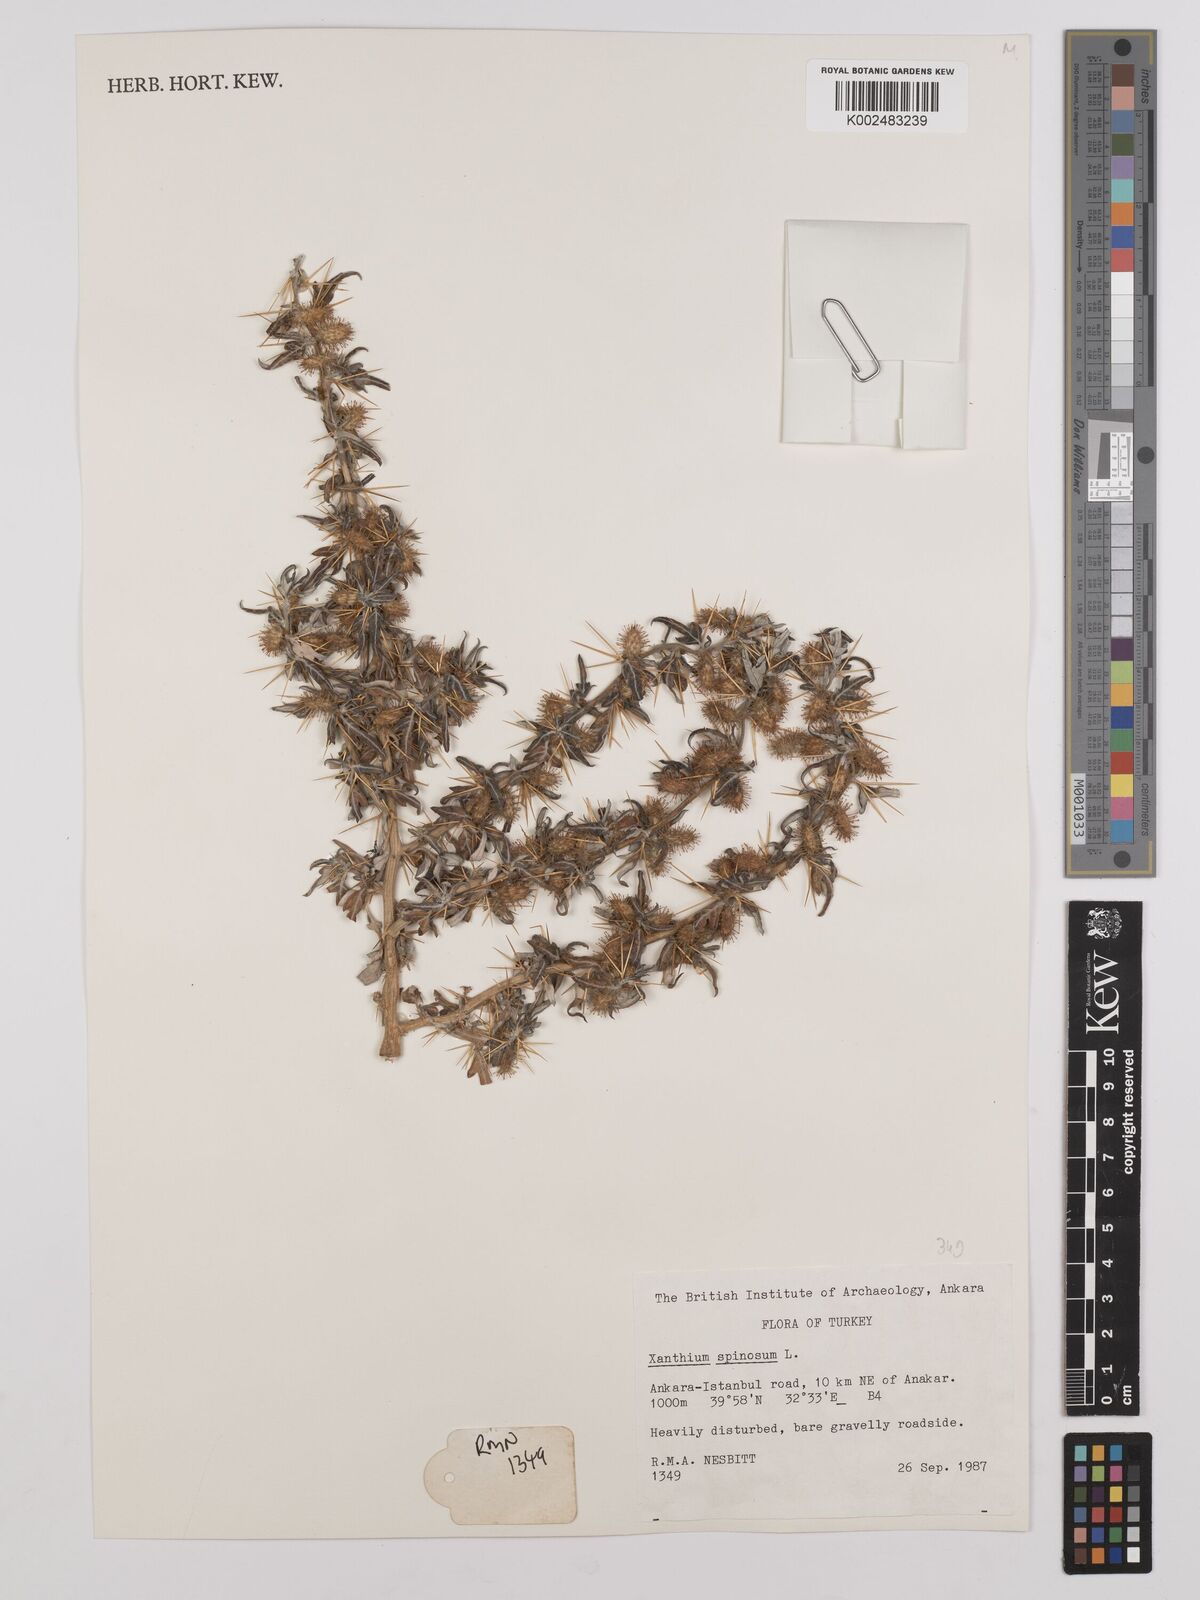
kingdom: Plantae
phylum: Tracheophyta
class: Magnoliopsida
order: Asterales
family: Asteraceae
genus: Xanthium
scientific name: Xanthium spinosum
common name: Spiny cocklebur
